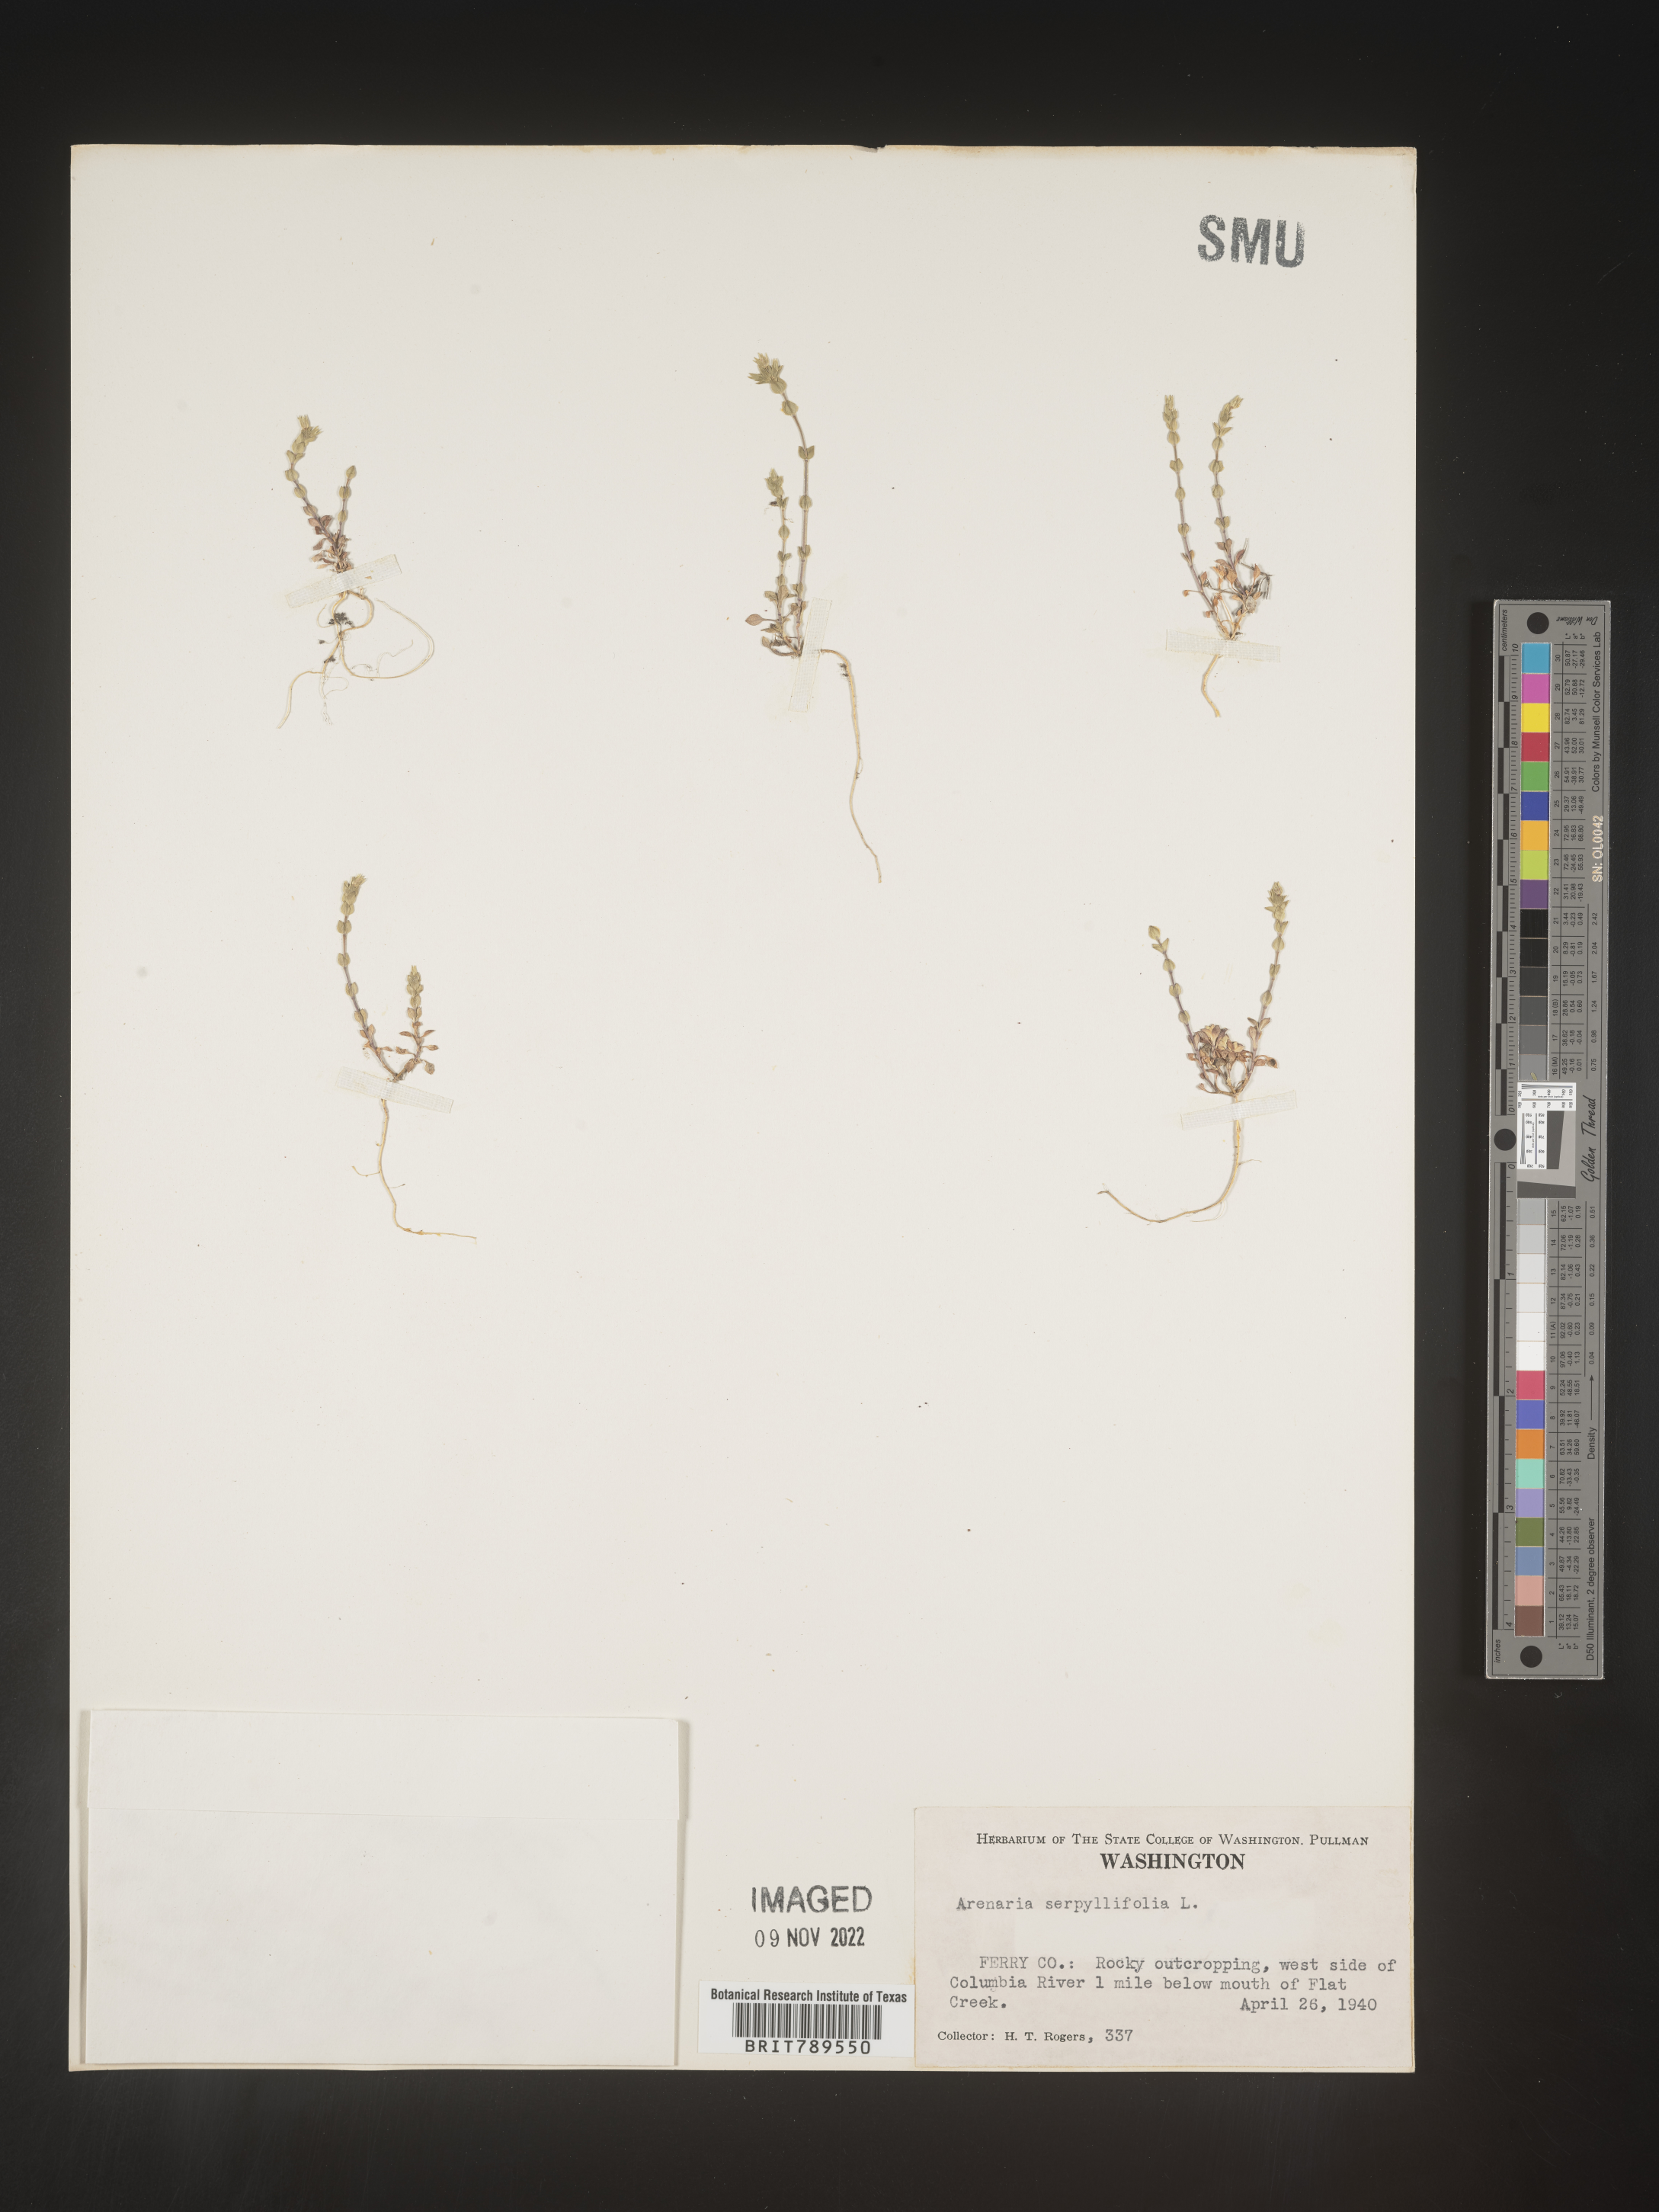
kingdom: Plantae
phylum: Tracheophyta
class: Magnoliopsida
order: Caryophyllales
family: Caryophyllaceae
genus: Arenaria
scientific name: Arenaria serpyllifolia
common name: Thyme-leaved sandwort
